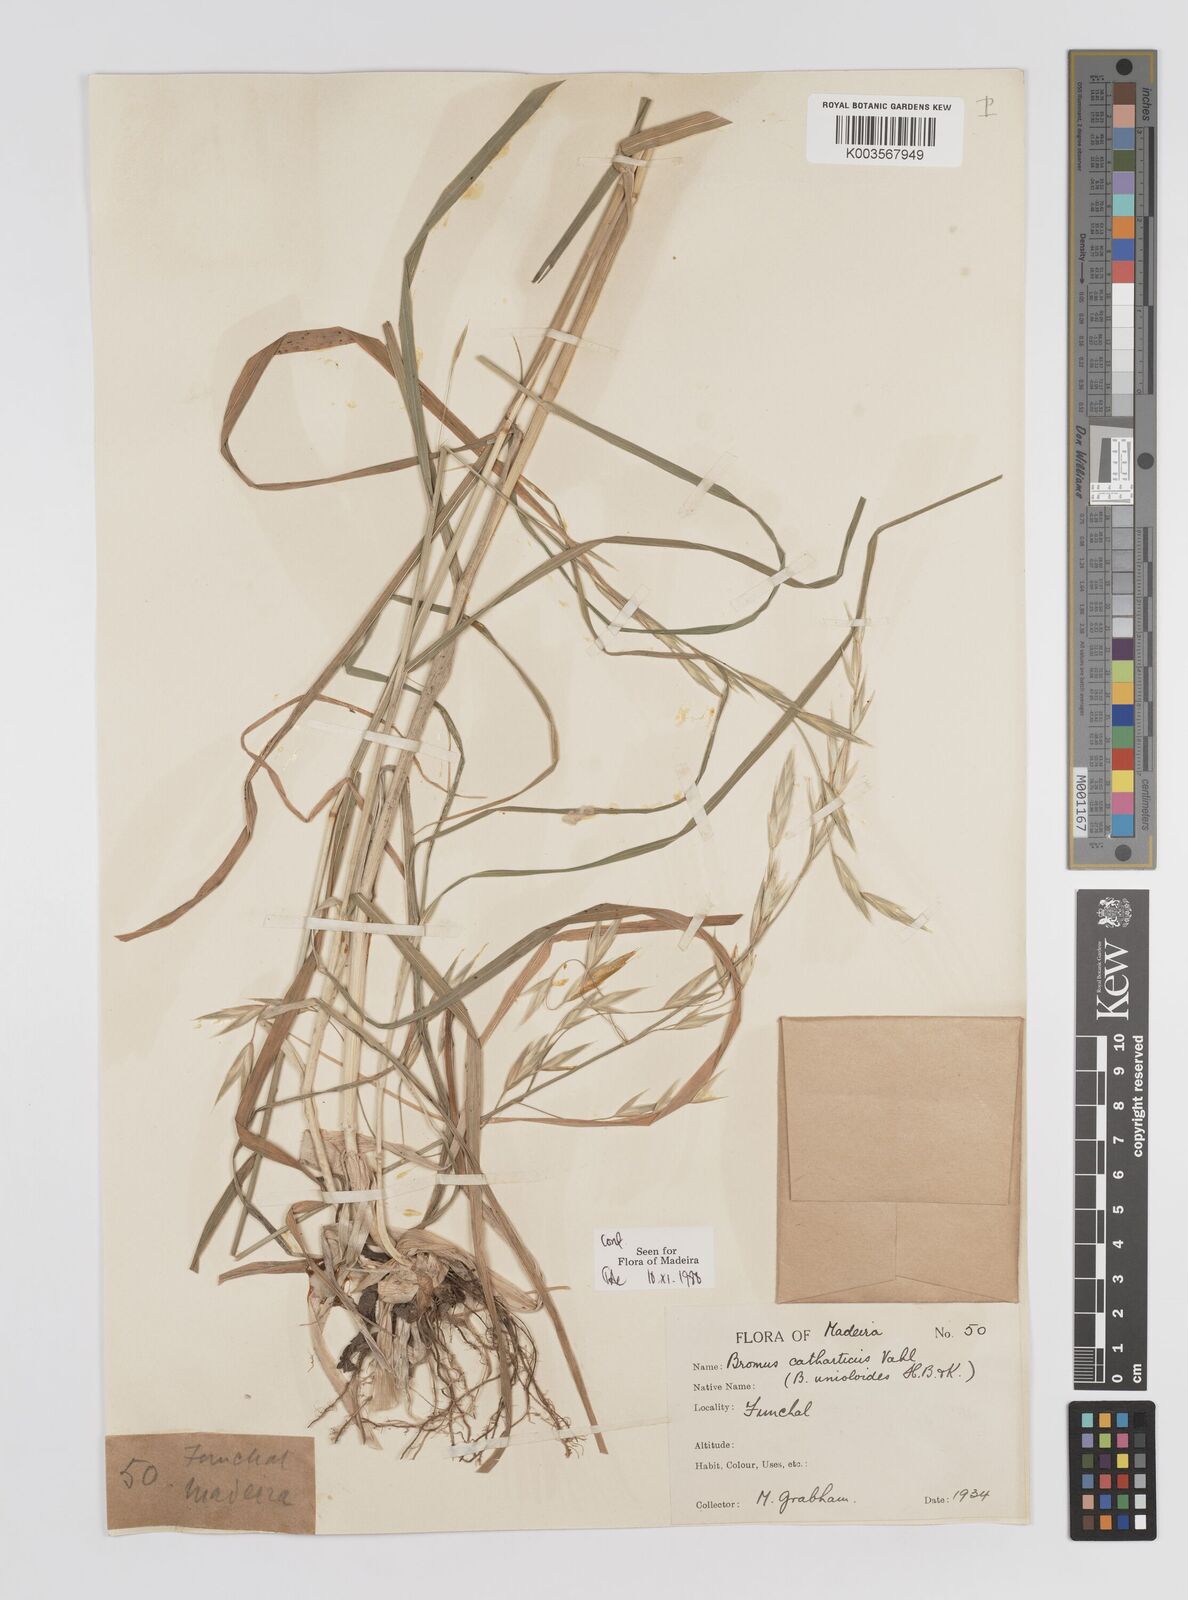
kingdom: Plantae
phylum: Tracheophyta
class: Liliopsida
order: Poales
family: Poaceae
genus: Bromus
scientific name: Bromus catharticus
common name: Rescuegrass
